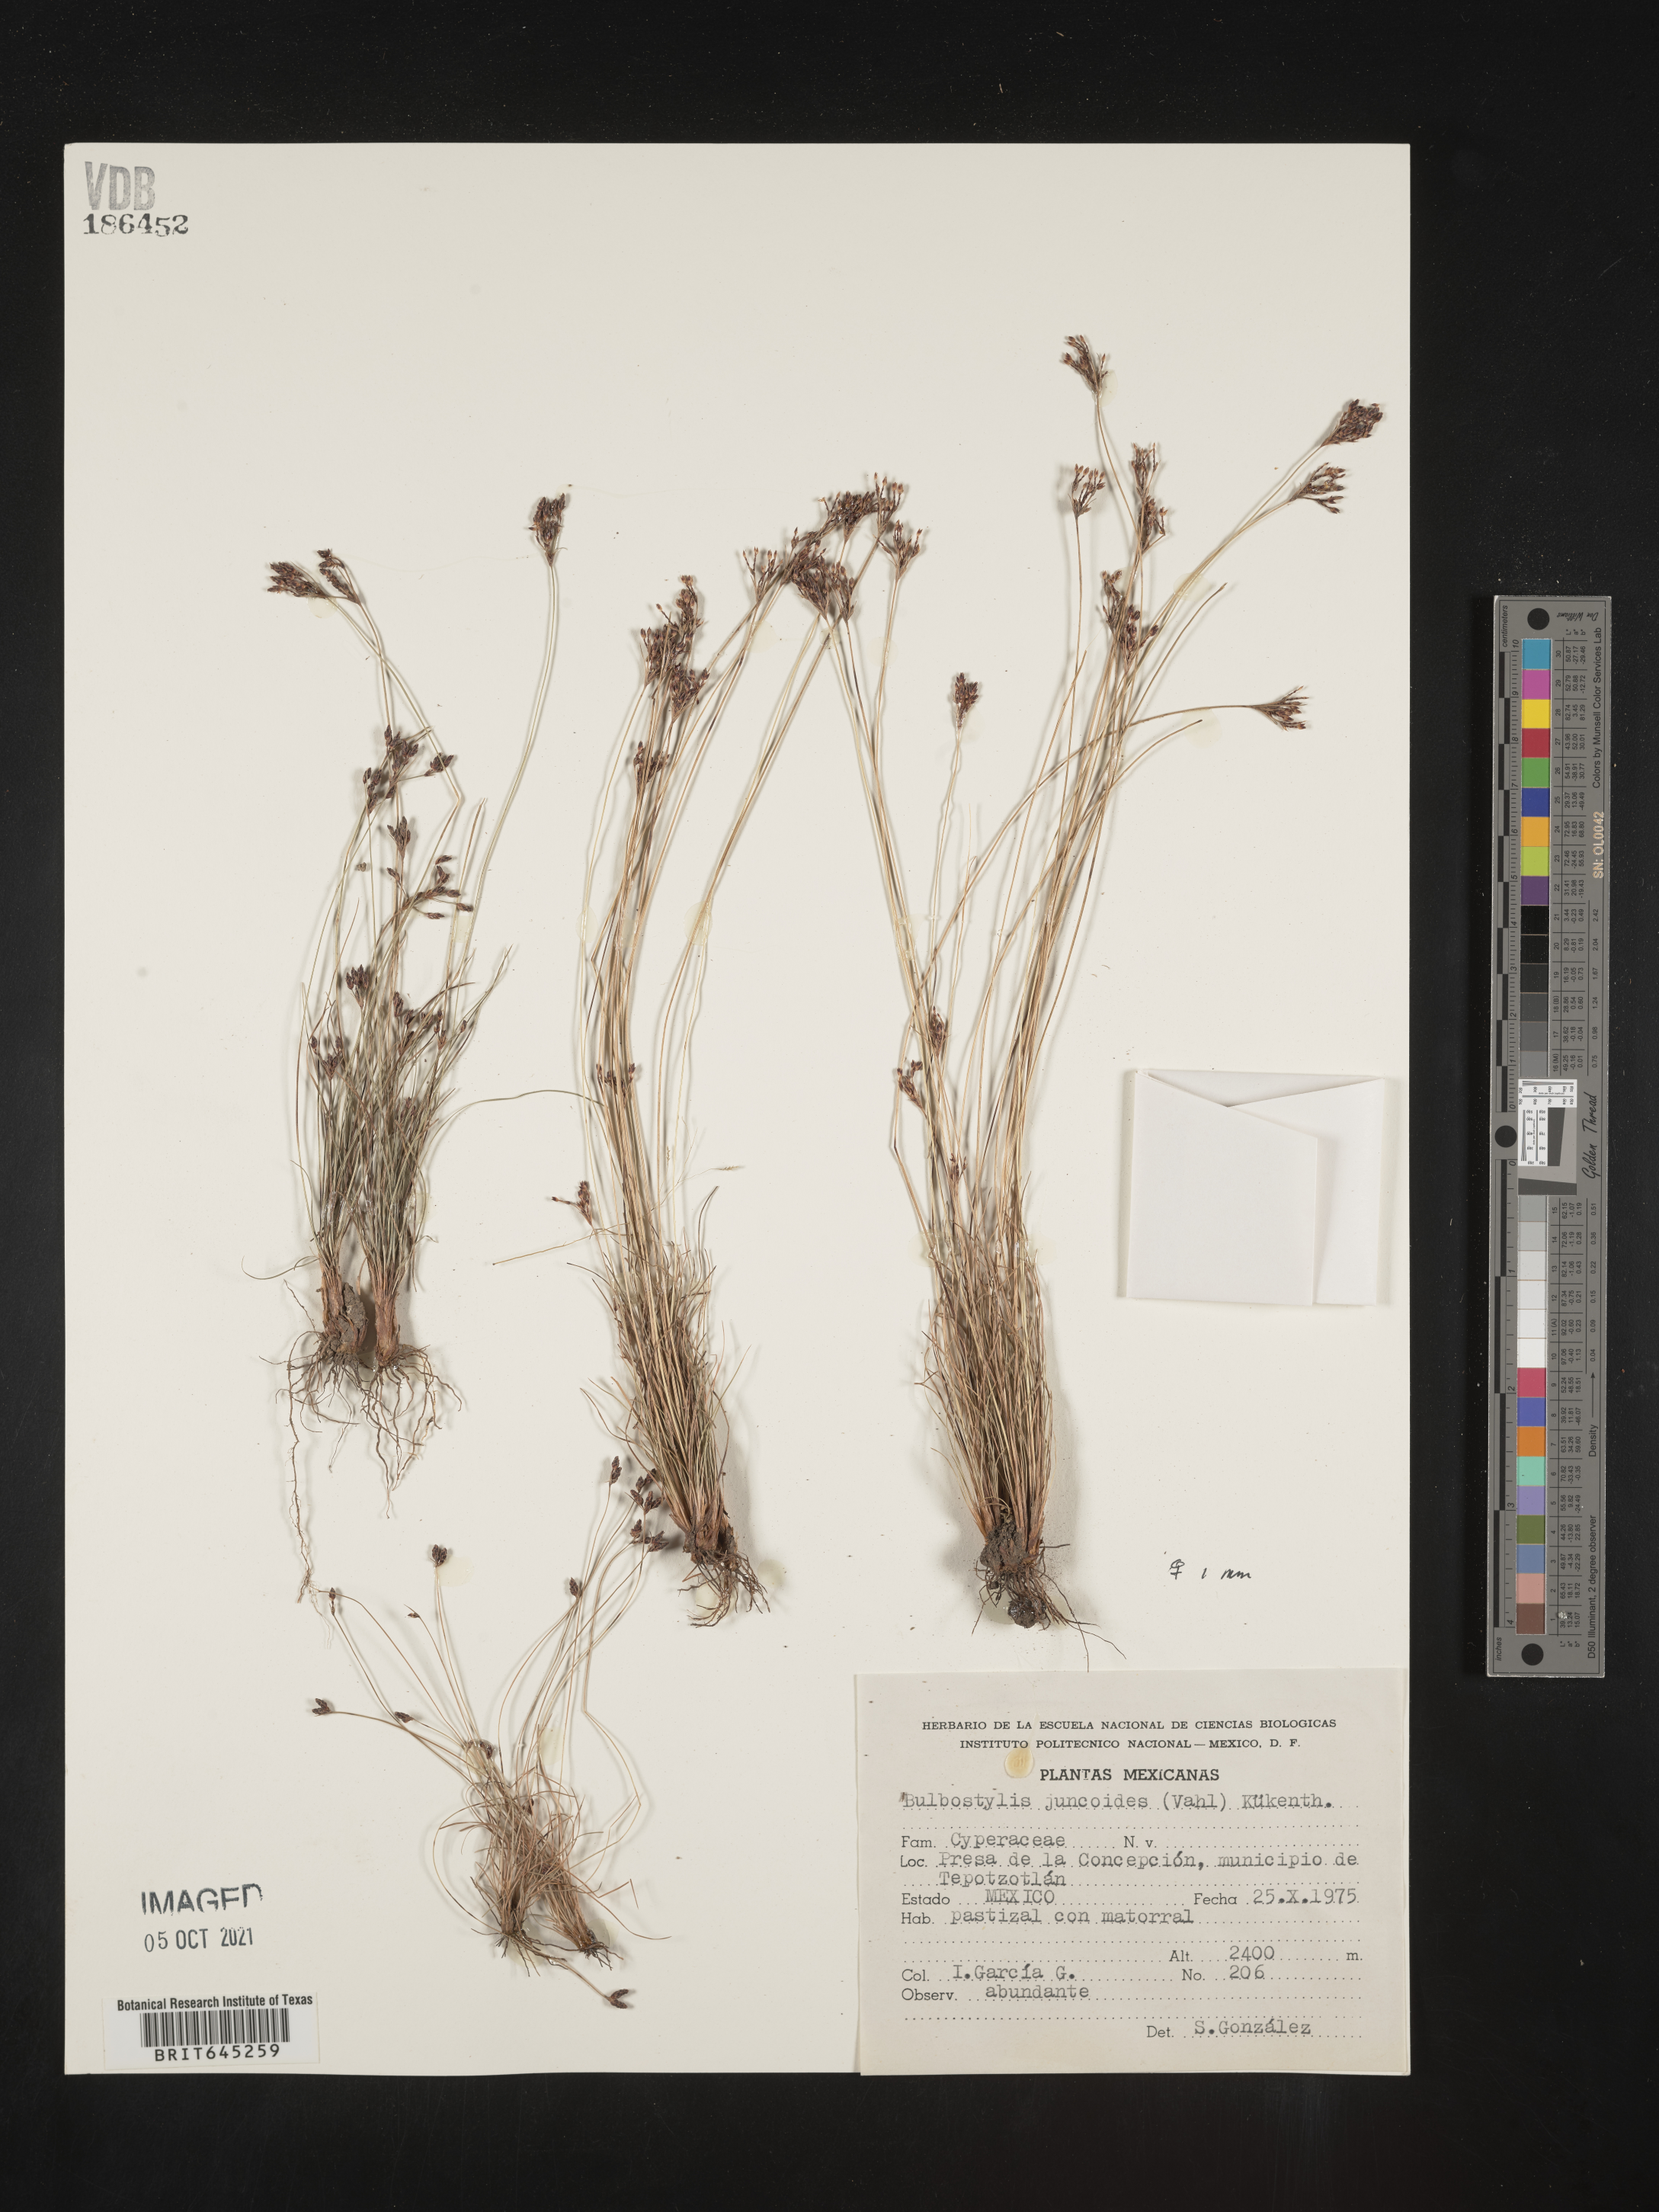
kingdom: Plantae
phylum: Tracheophyta
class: Liliopsida
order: Poales
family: Cyperaceae
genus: Bulbostylis
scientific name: Bulbostylis juncoides
